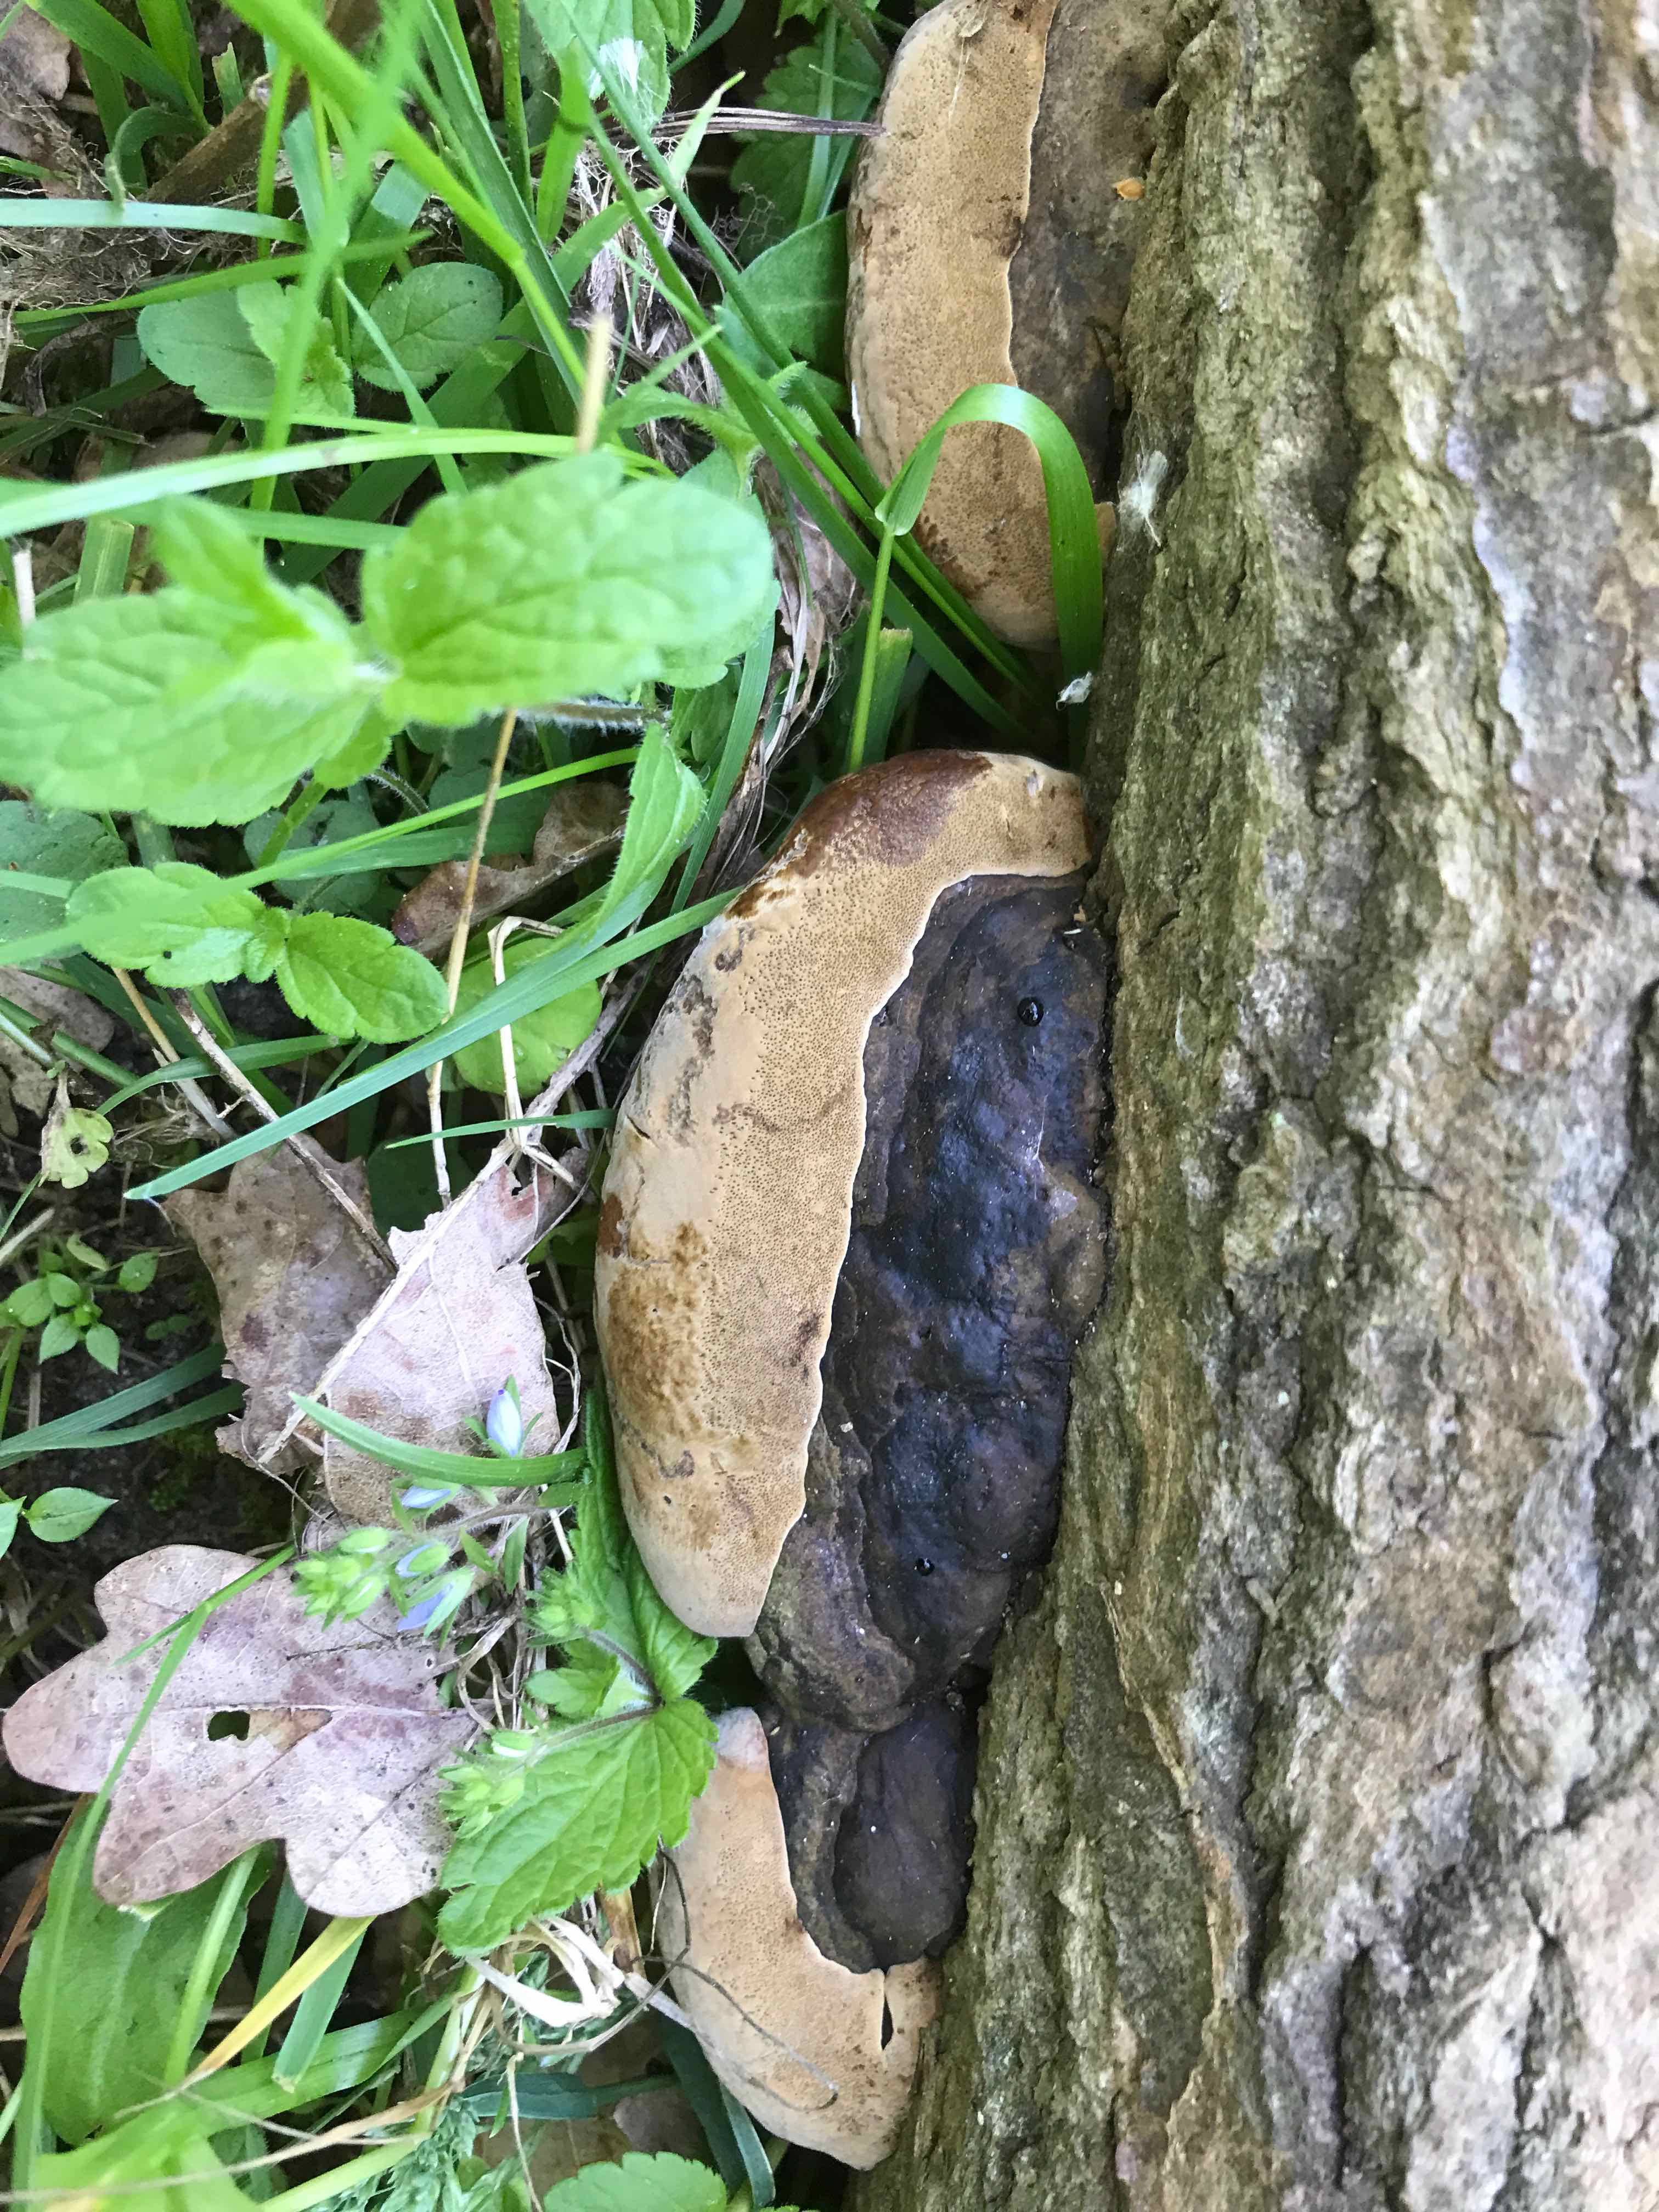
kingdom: Fungi
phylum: Basidiomycota
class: Agaricomycetes
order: Hymenochaetales
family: Hymenochaetaceae
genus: Phellinus
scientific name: Phellinus
